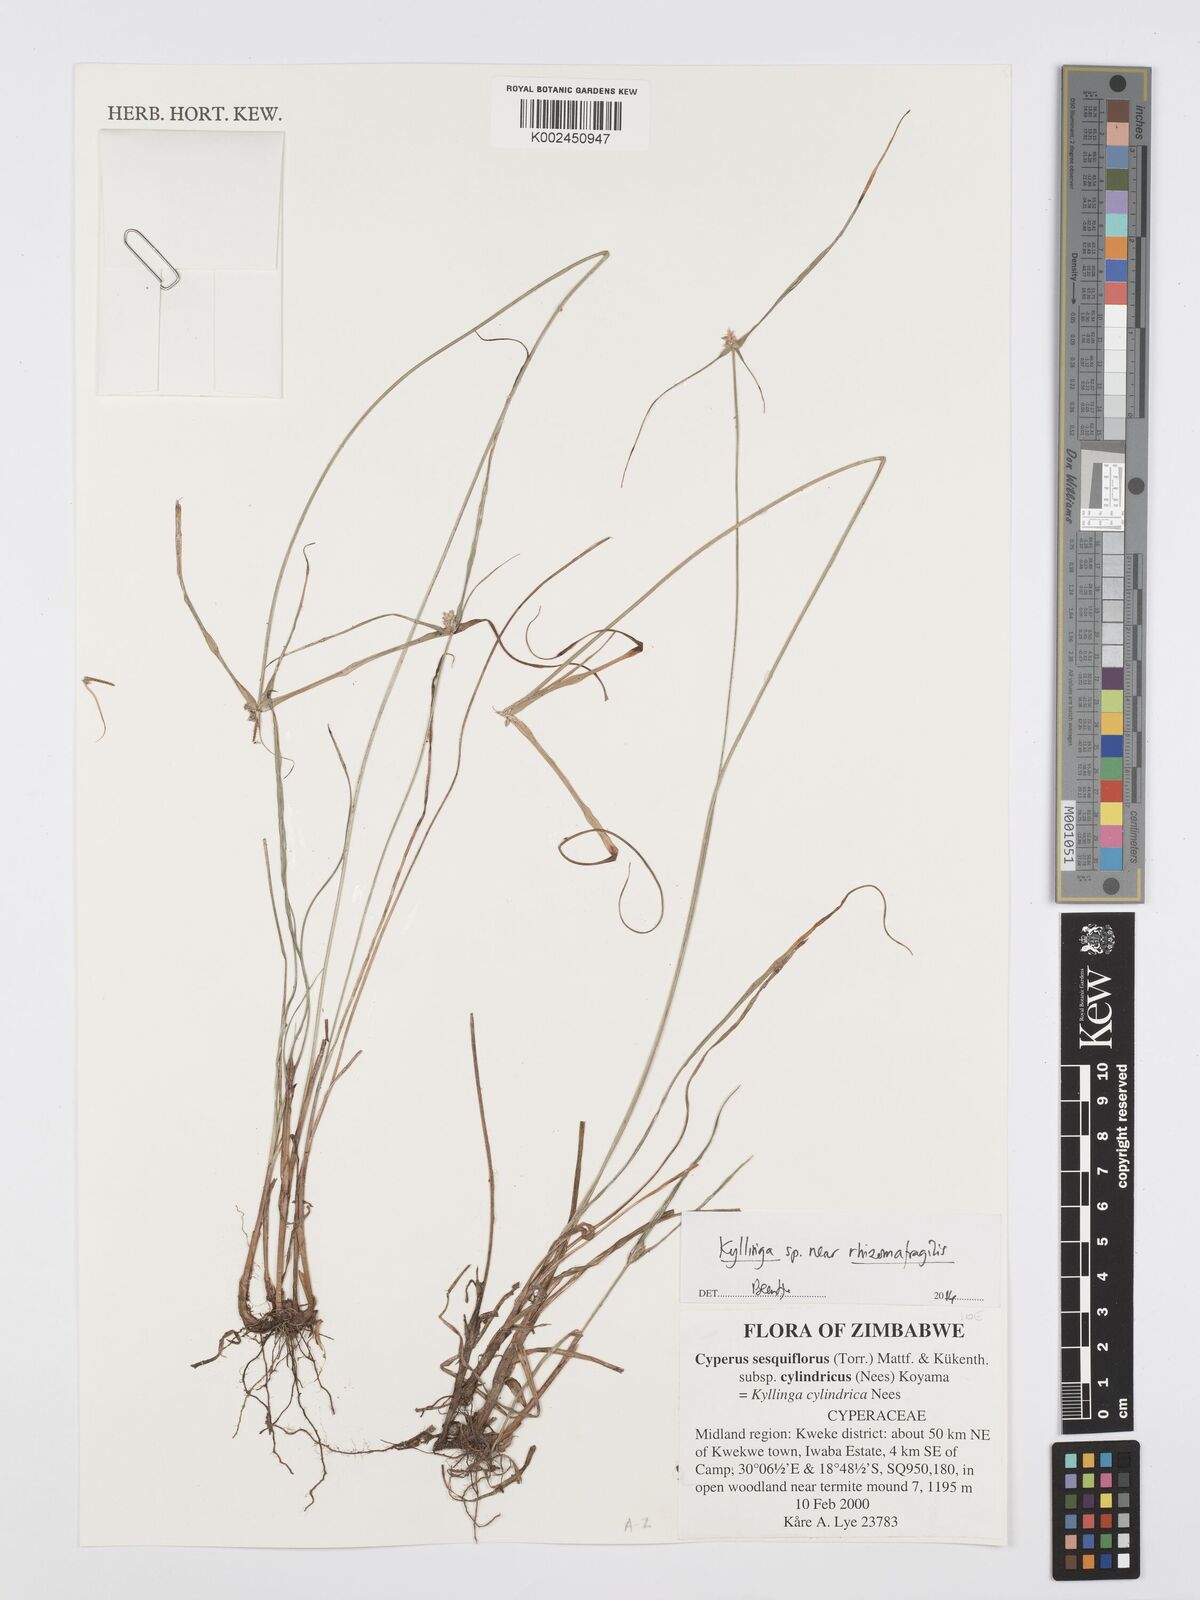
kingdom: Plantae
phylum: Tracheophyta
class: Liliopsida
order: Poales
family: Cyperaceae
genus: Cyperus
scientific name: Cyperus rhizomafragilis
